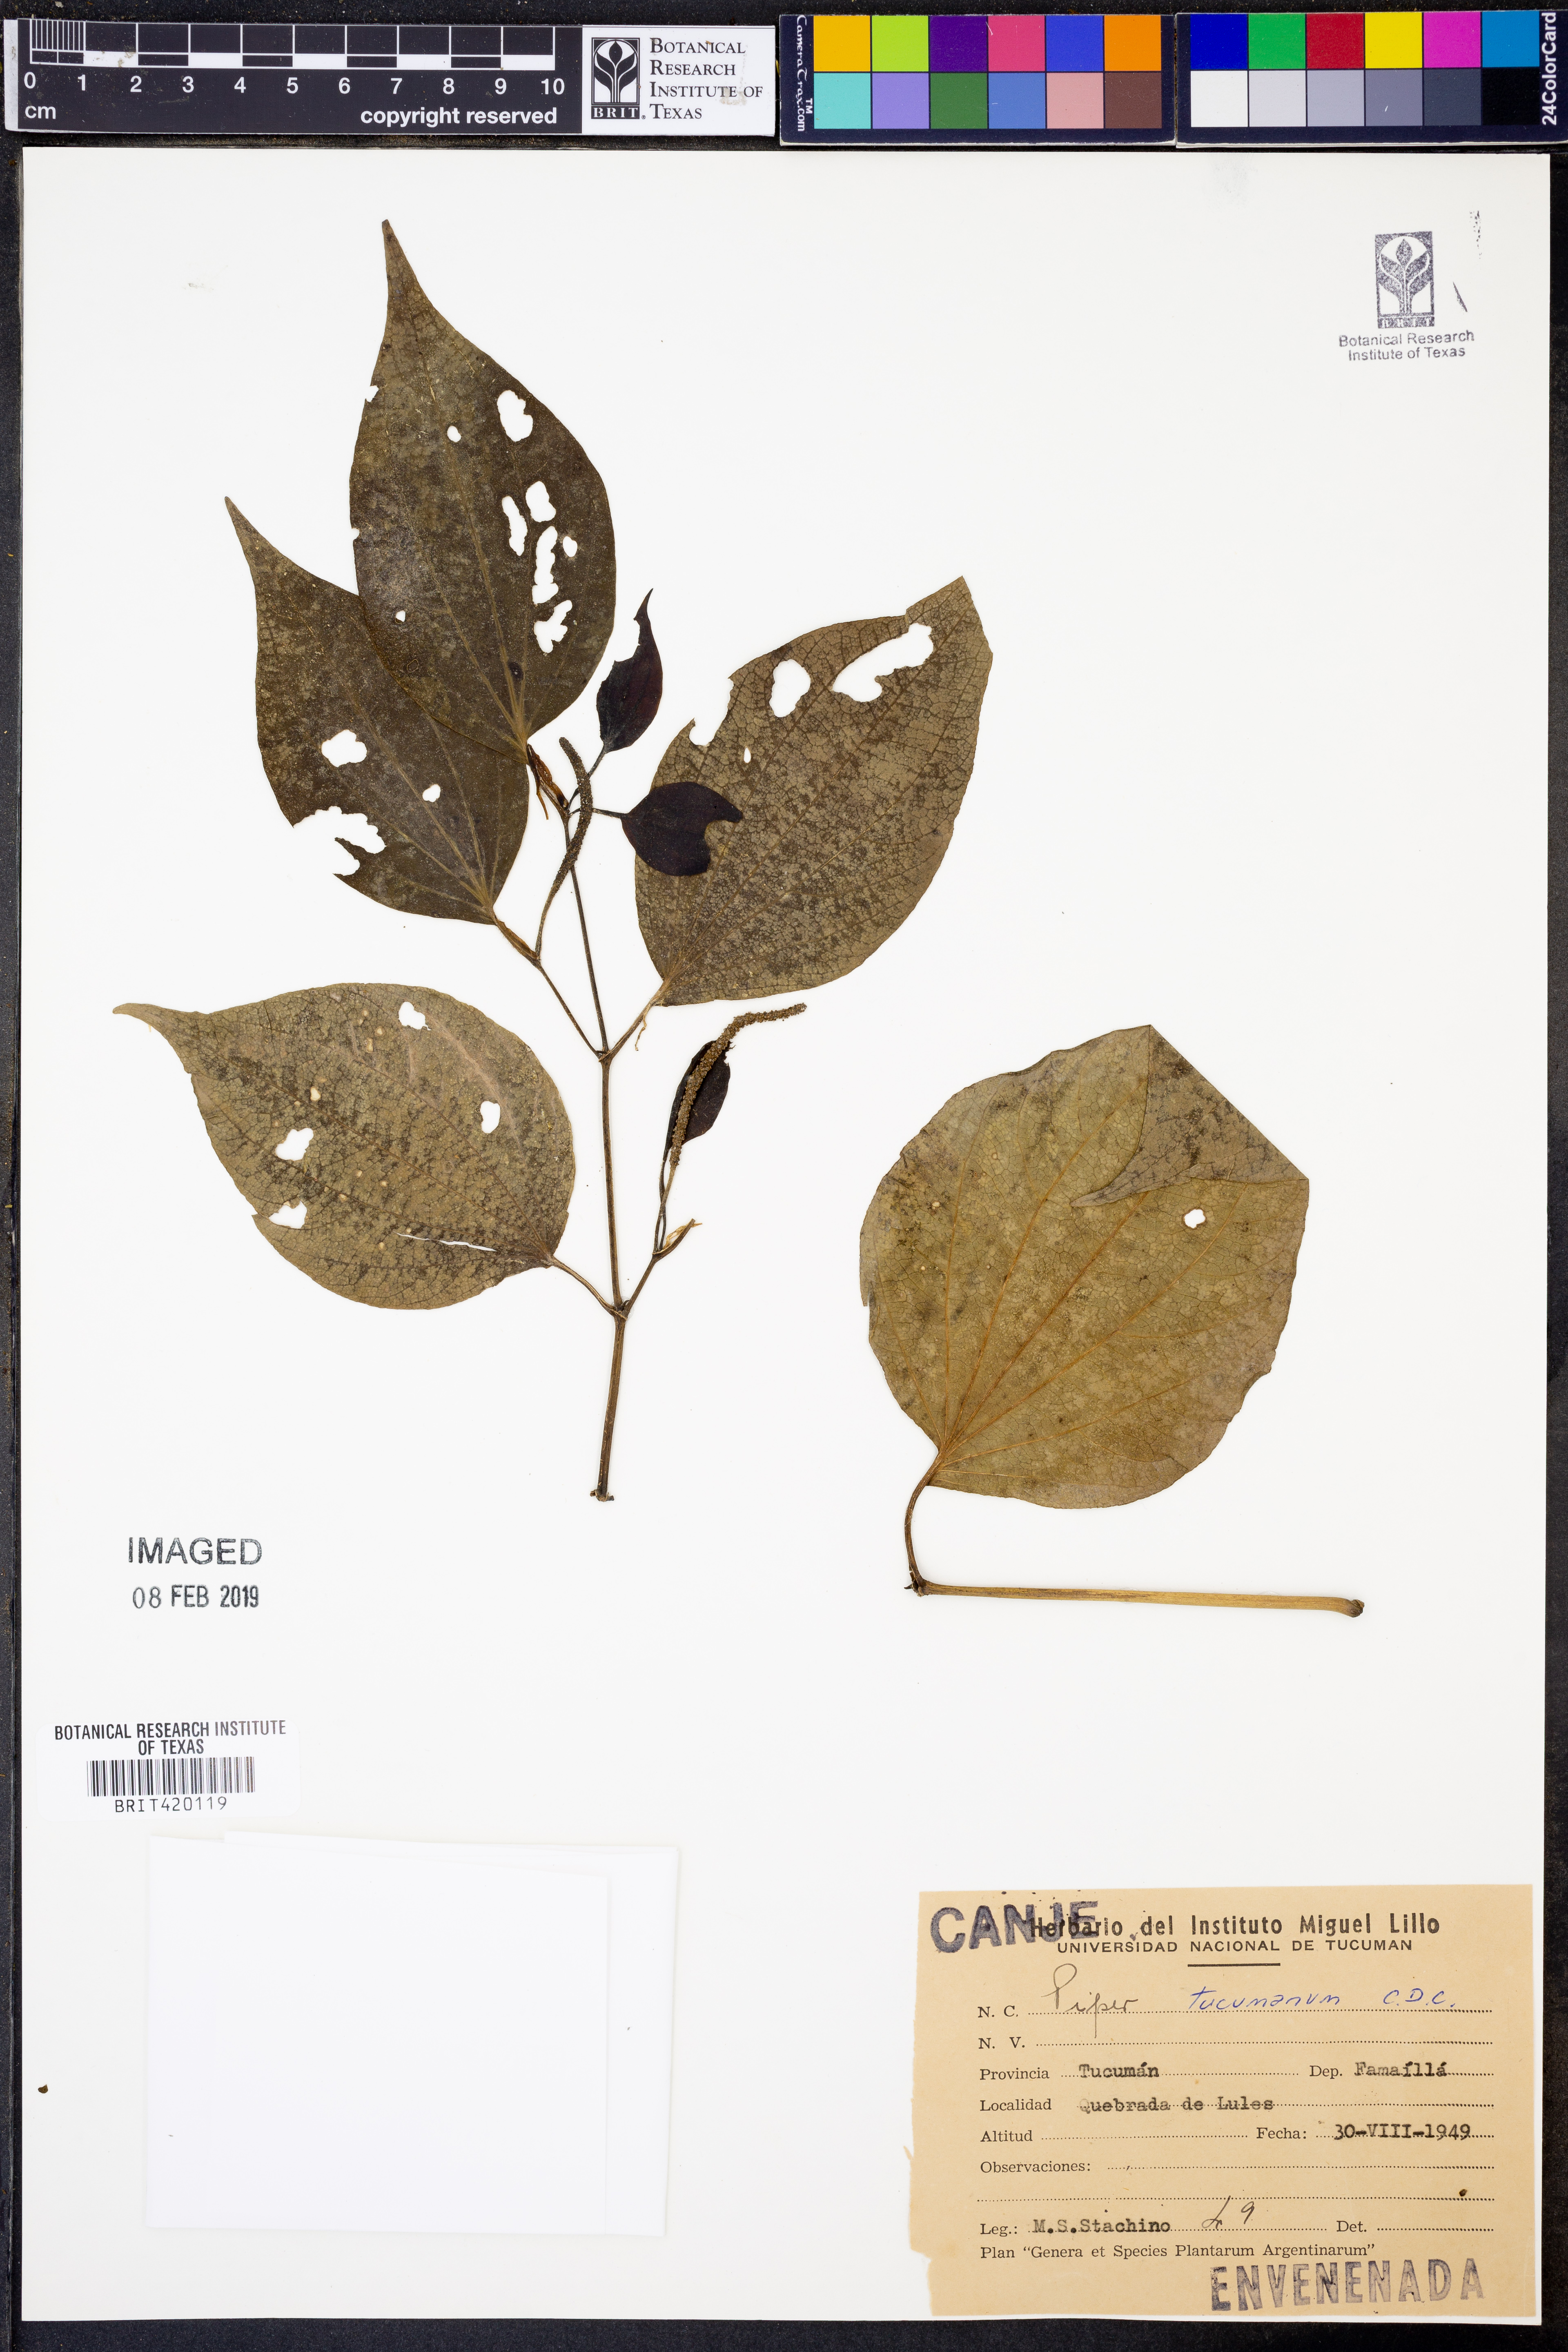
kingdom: Plantae
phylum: Tracheophyta
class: Magnoliopsida
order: Piperales
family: Piperaceae
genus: Piper
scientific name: Piper tucumanum
